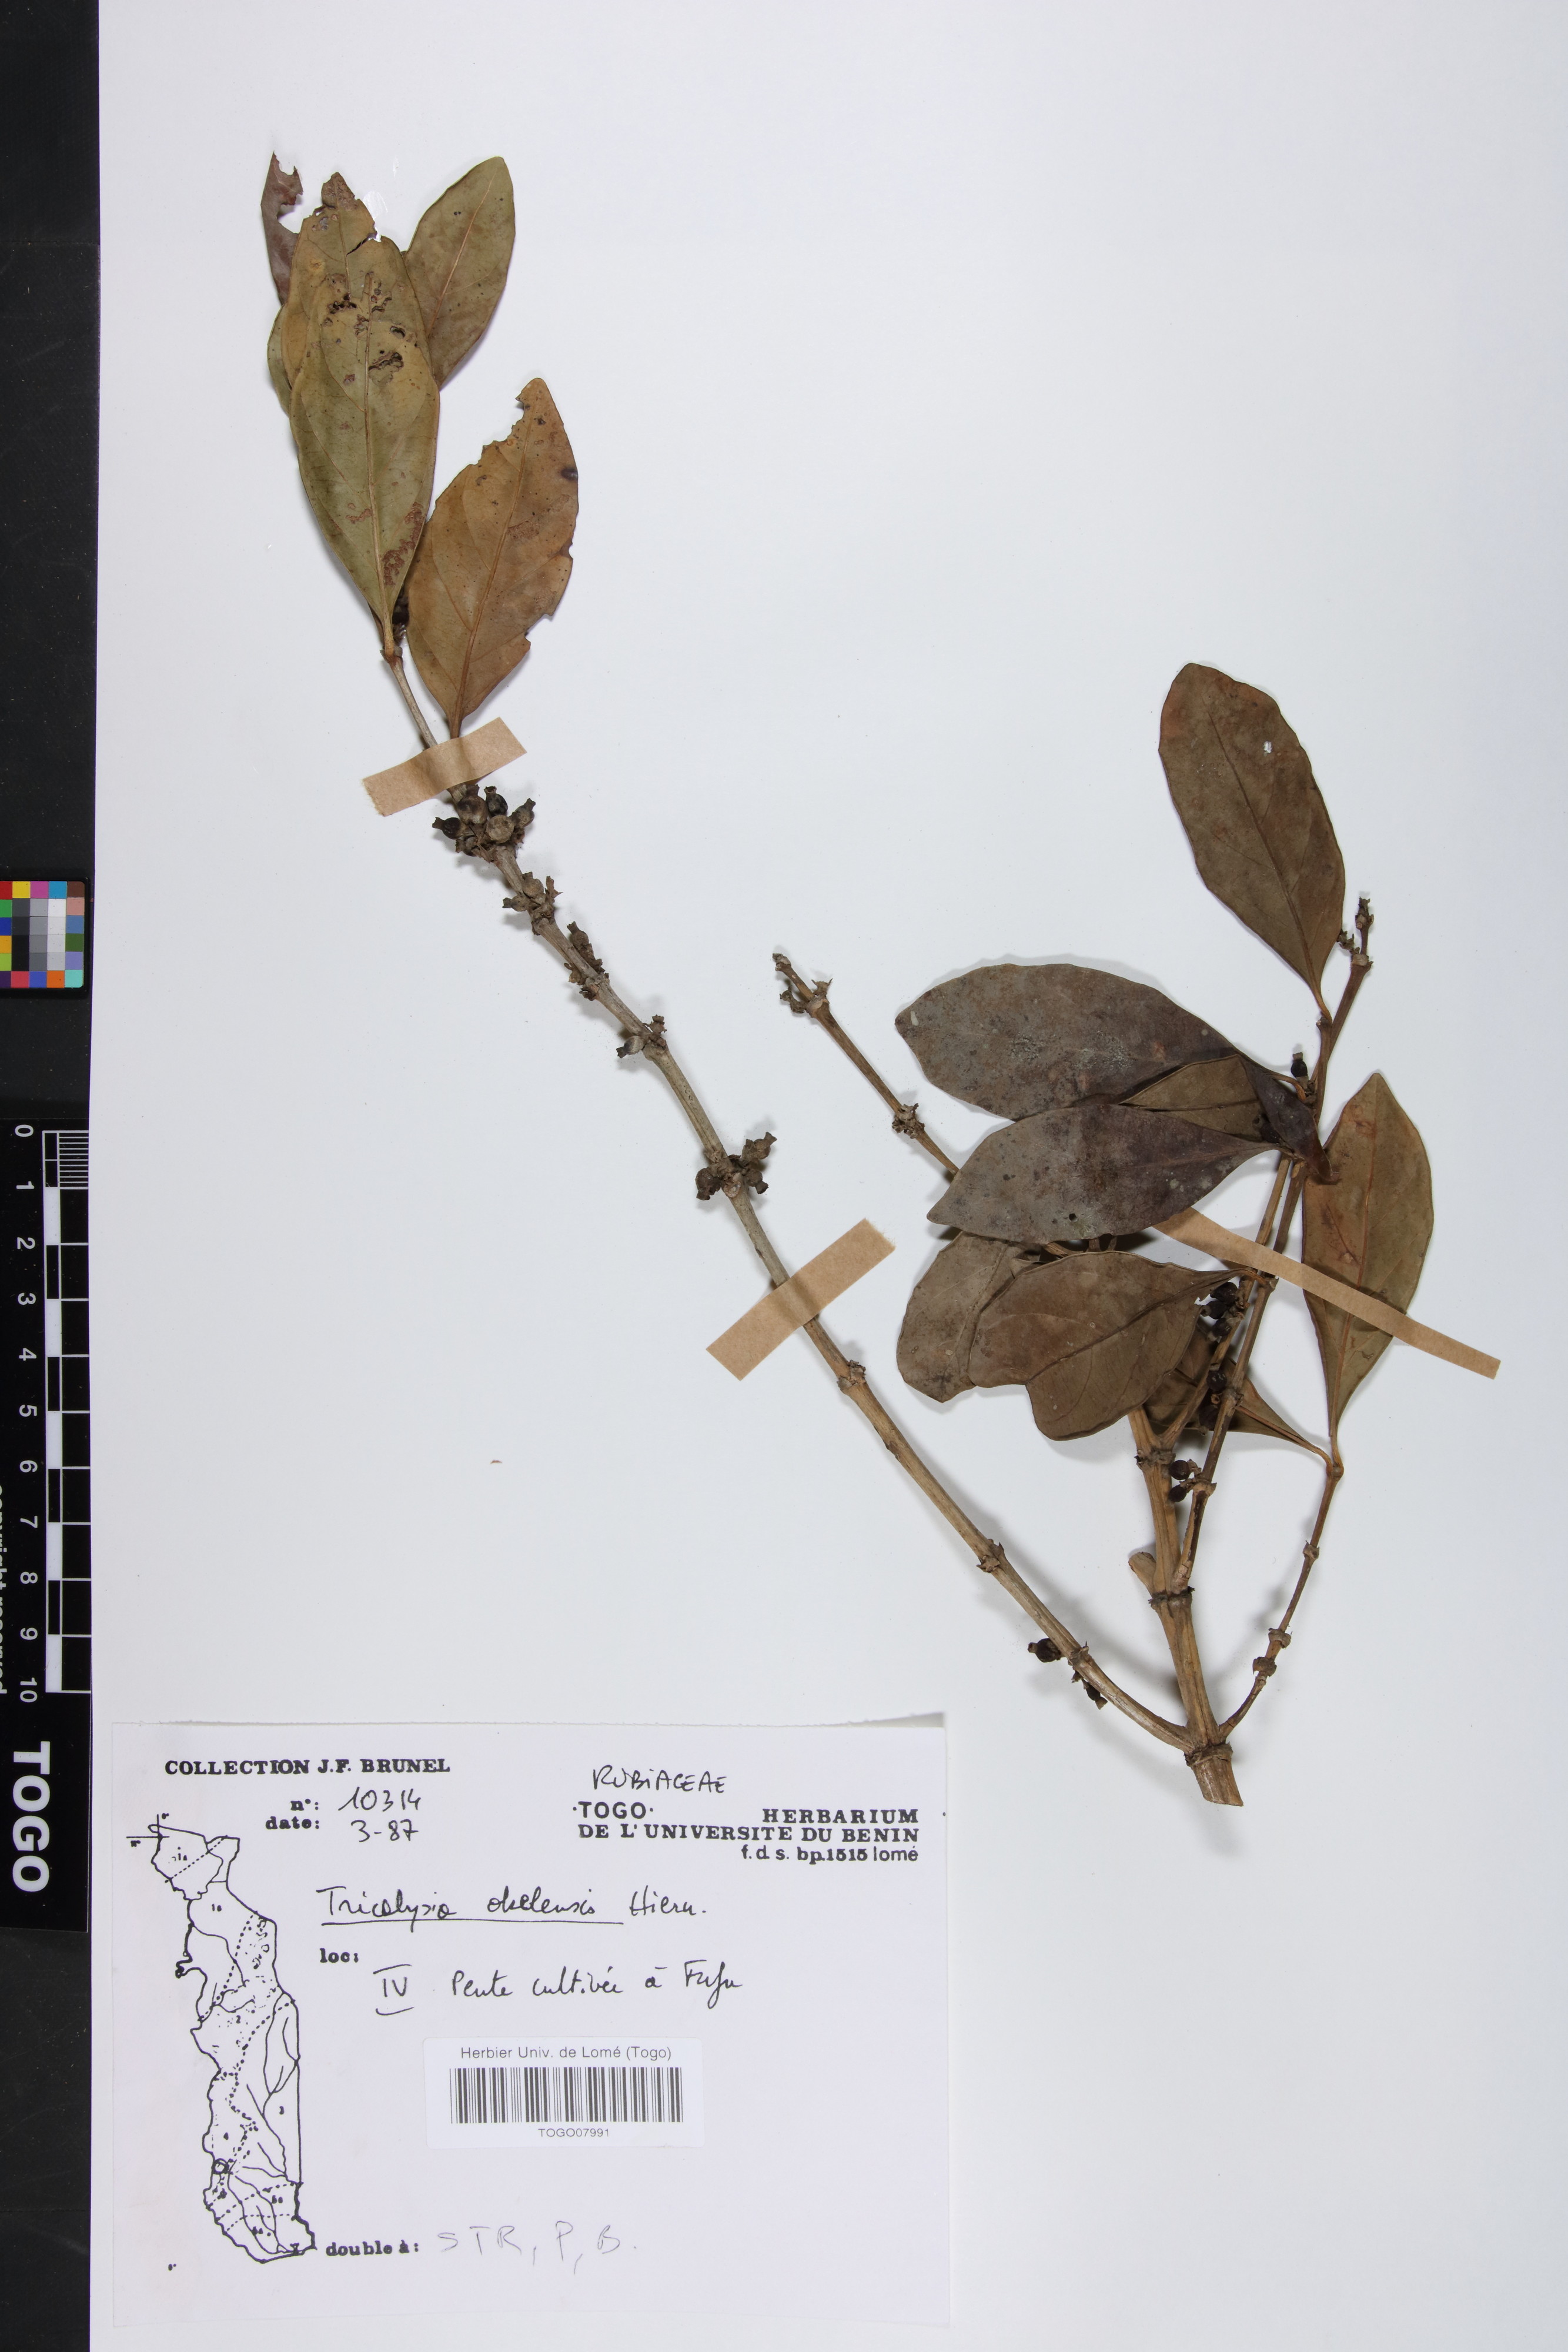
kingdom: Plantae
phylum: Tracheophyta
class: Magnoliopsida
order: Gentianales
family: Rubiaceae
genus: Tricalysia
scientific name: Tricalysia okelensis
